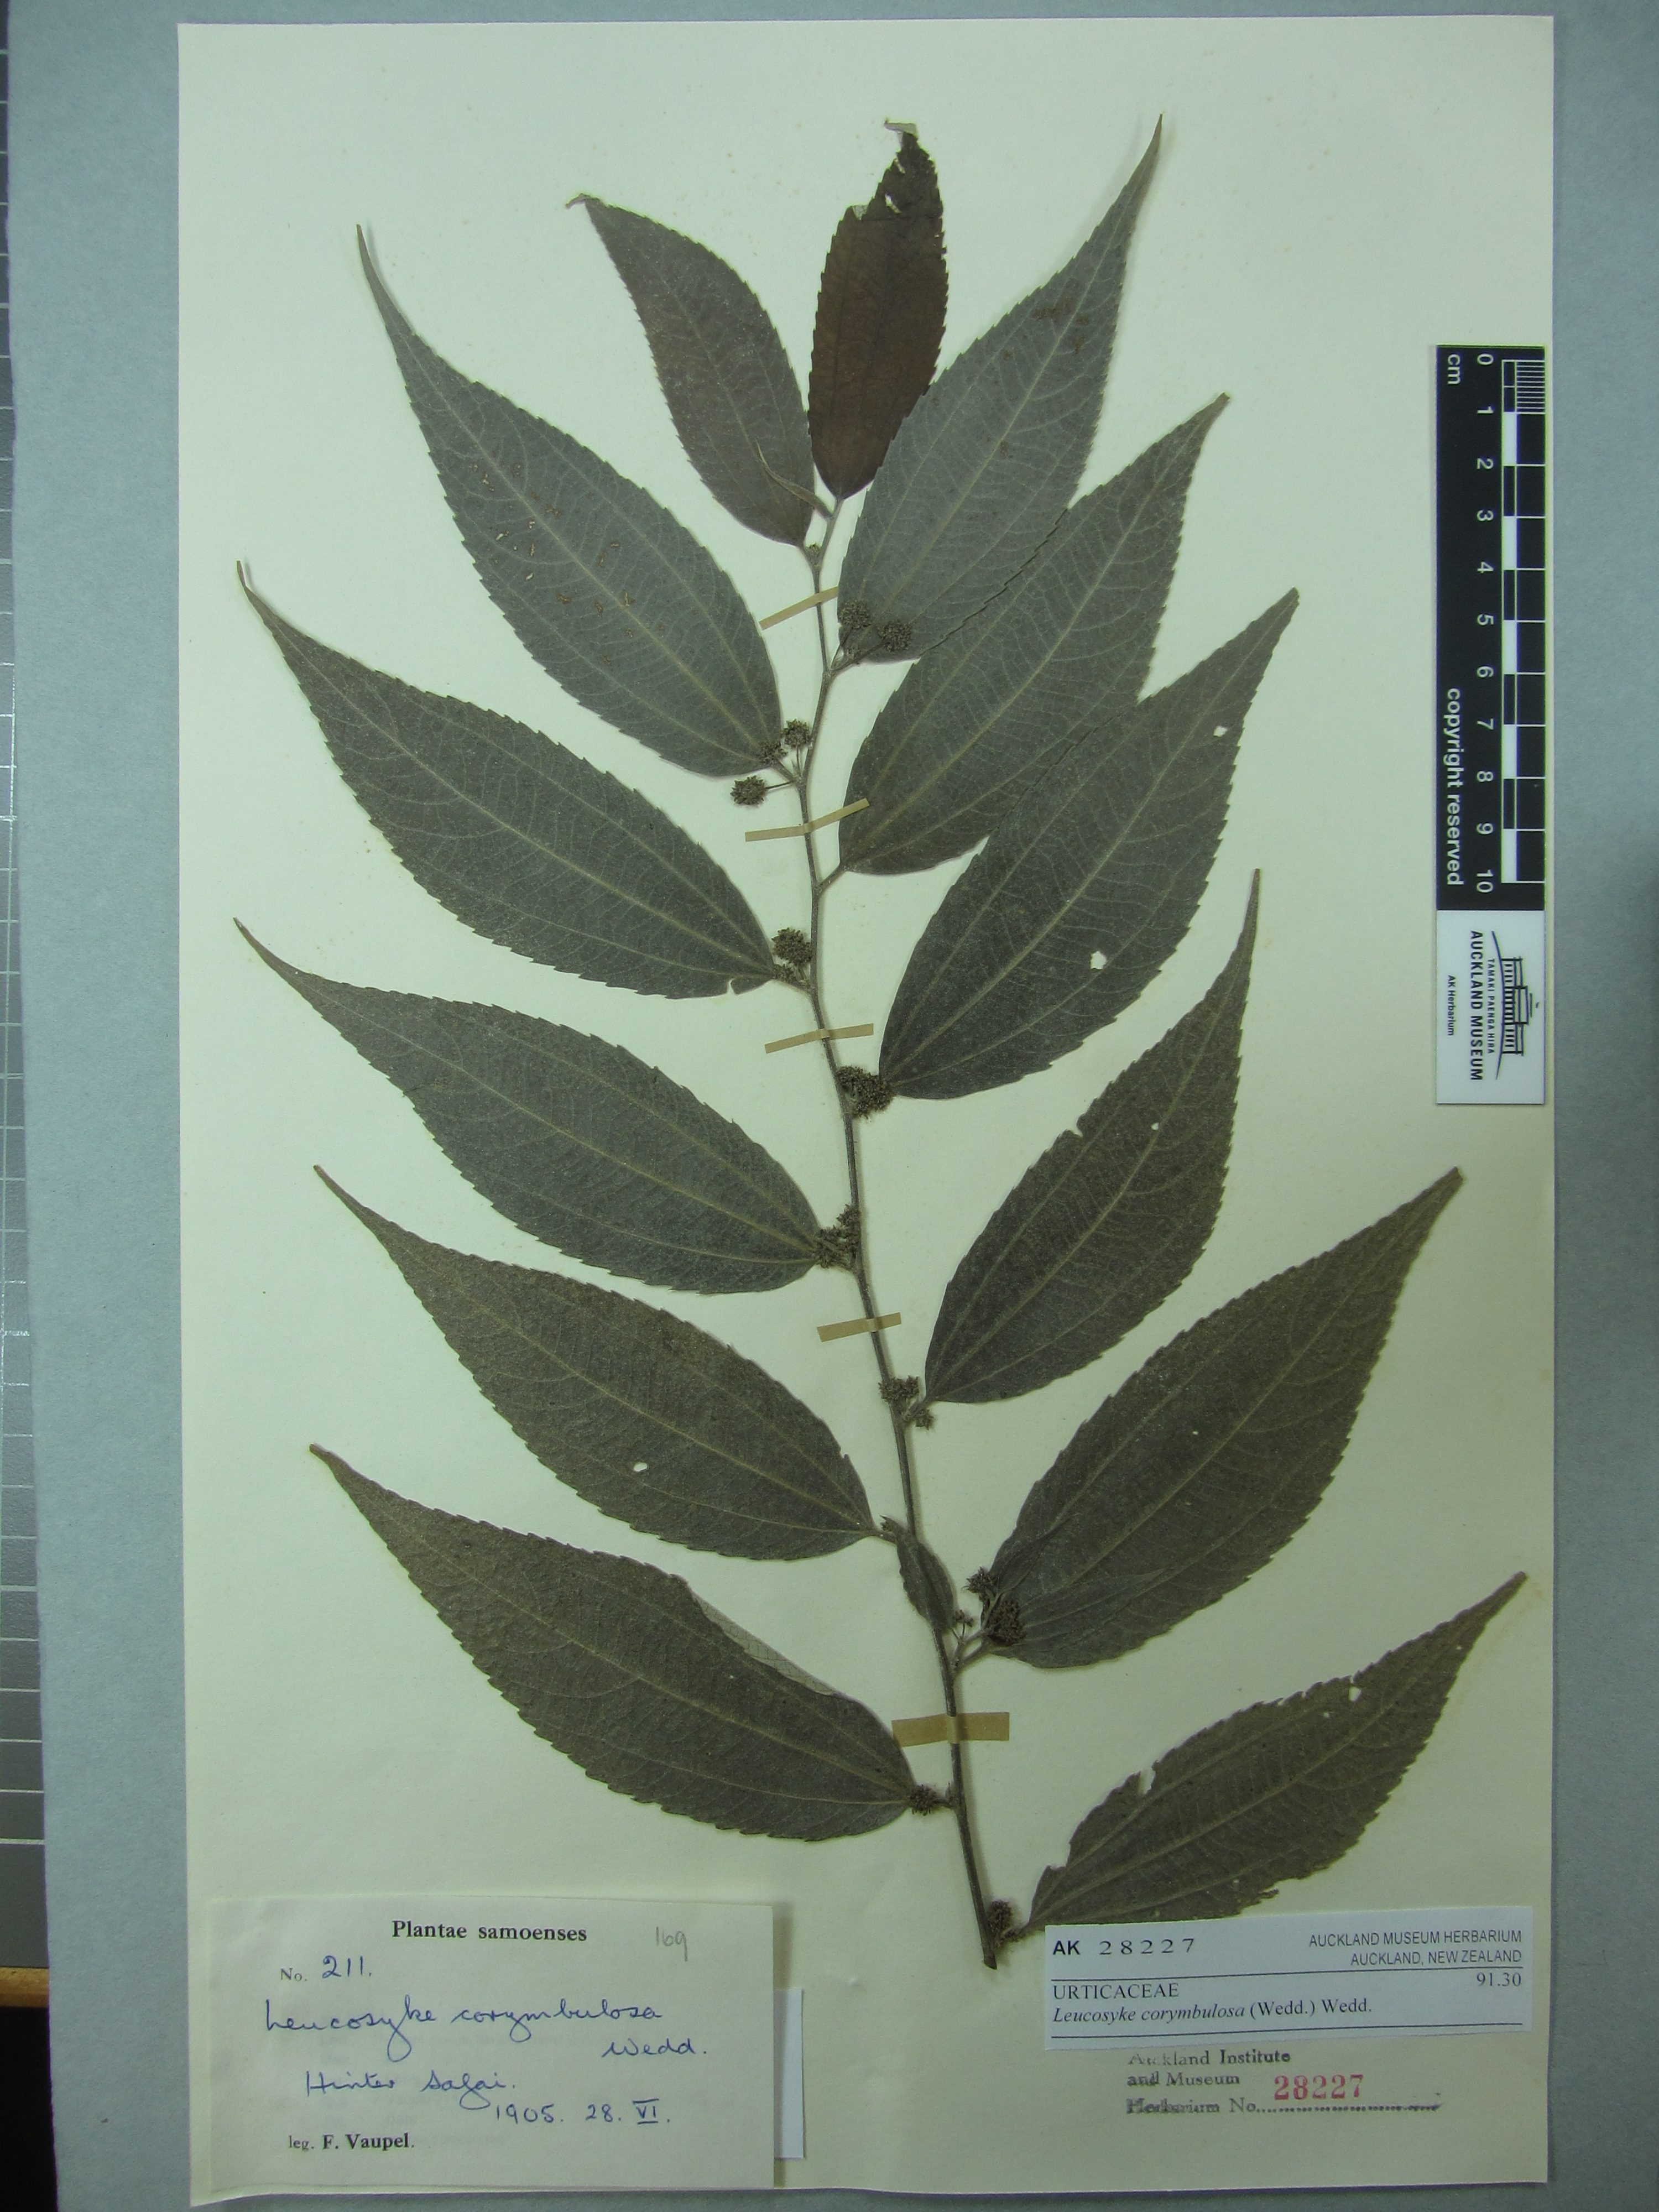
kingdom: Plantae
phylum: Tracheophyta
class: Magnoliopsida
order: Rosales
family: Urticaceae
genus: Leucosyke
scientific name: Leucosyke corymbulosa
